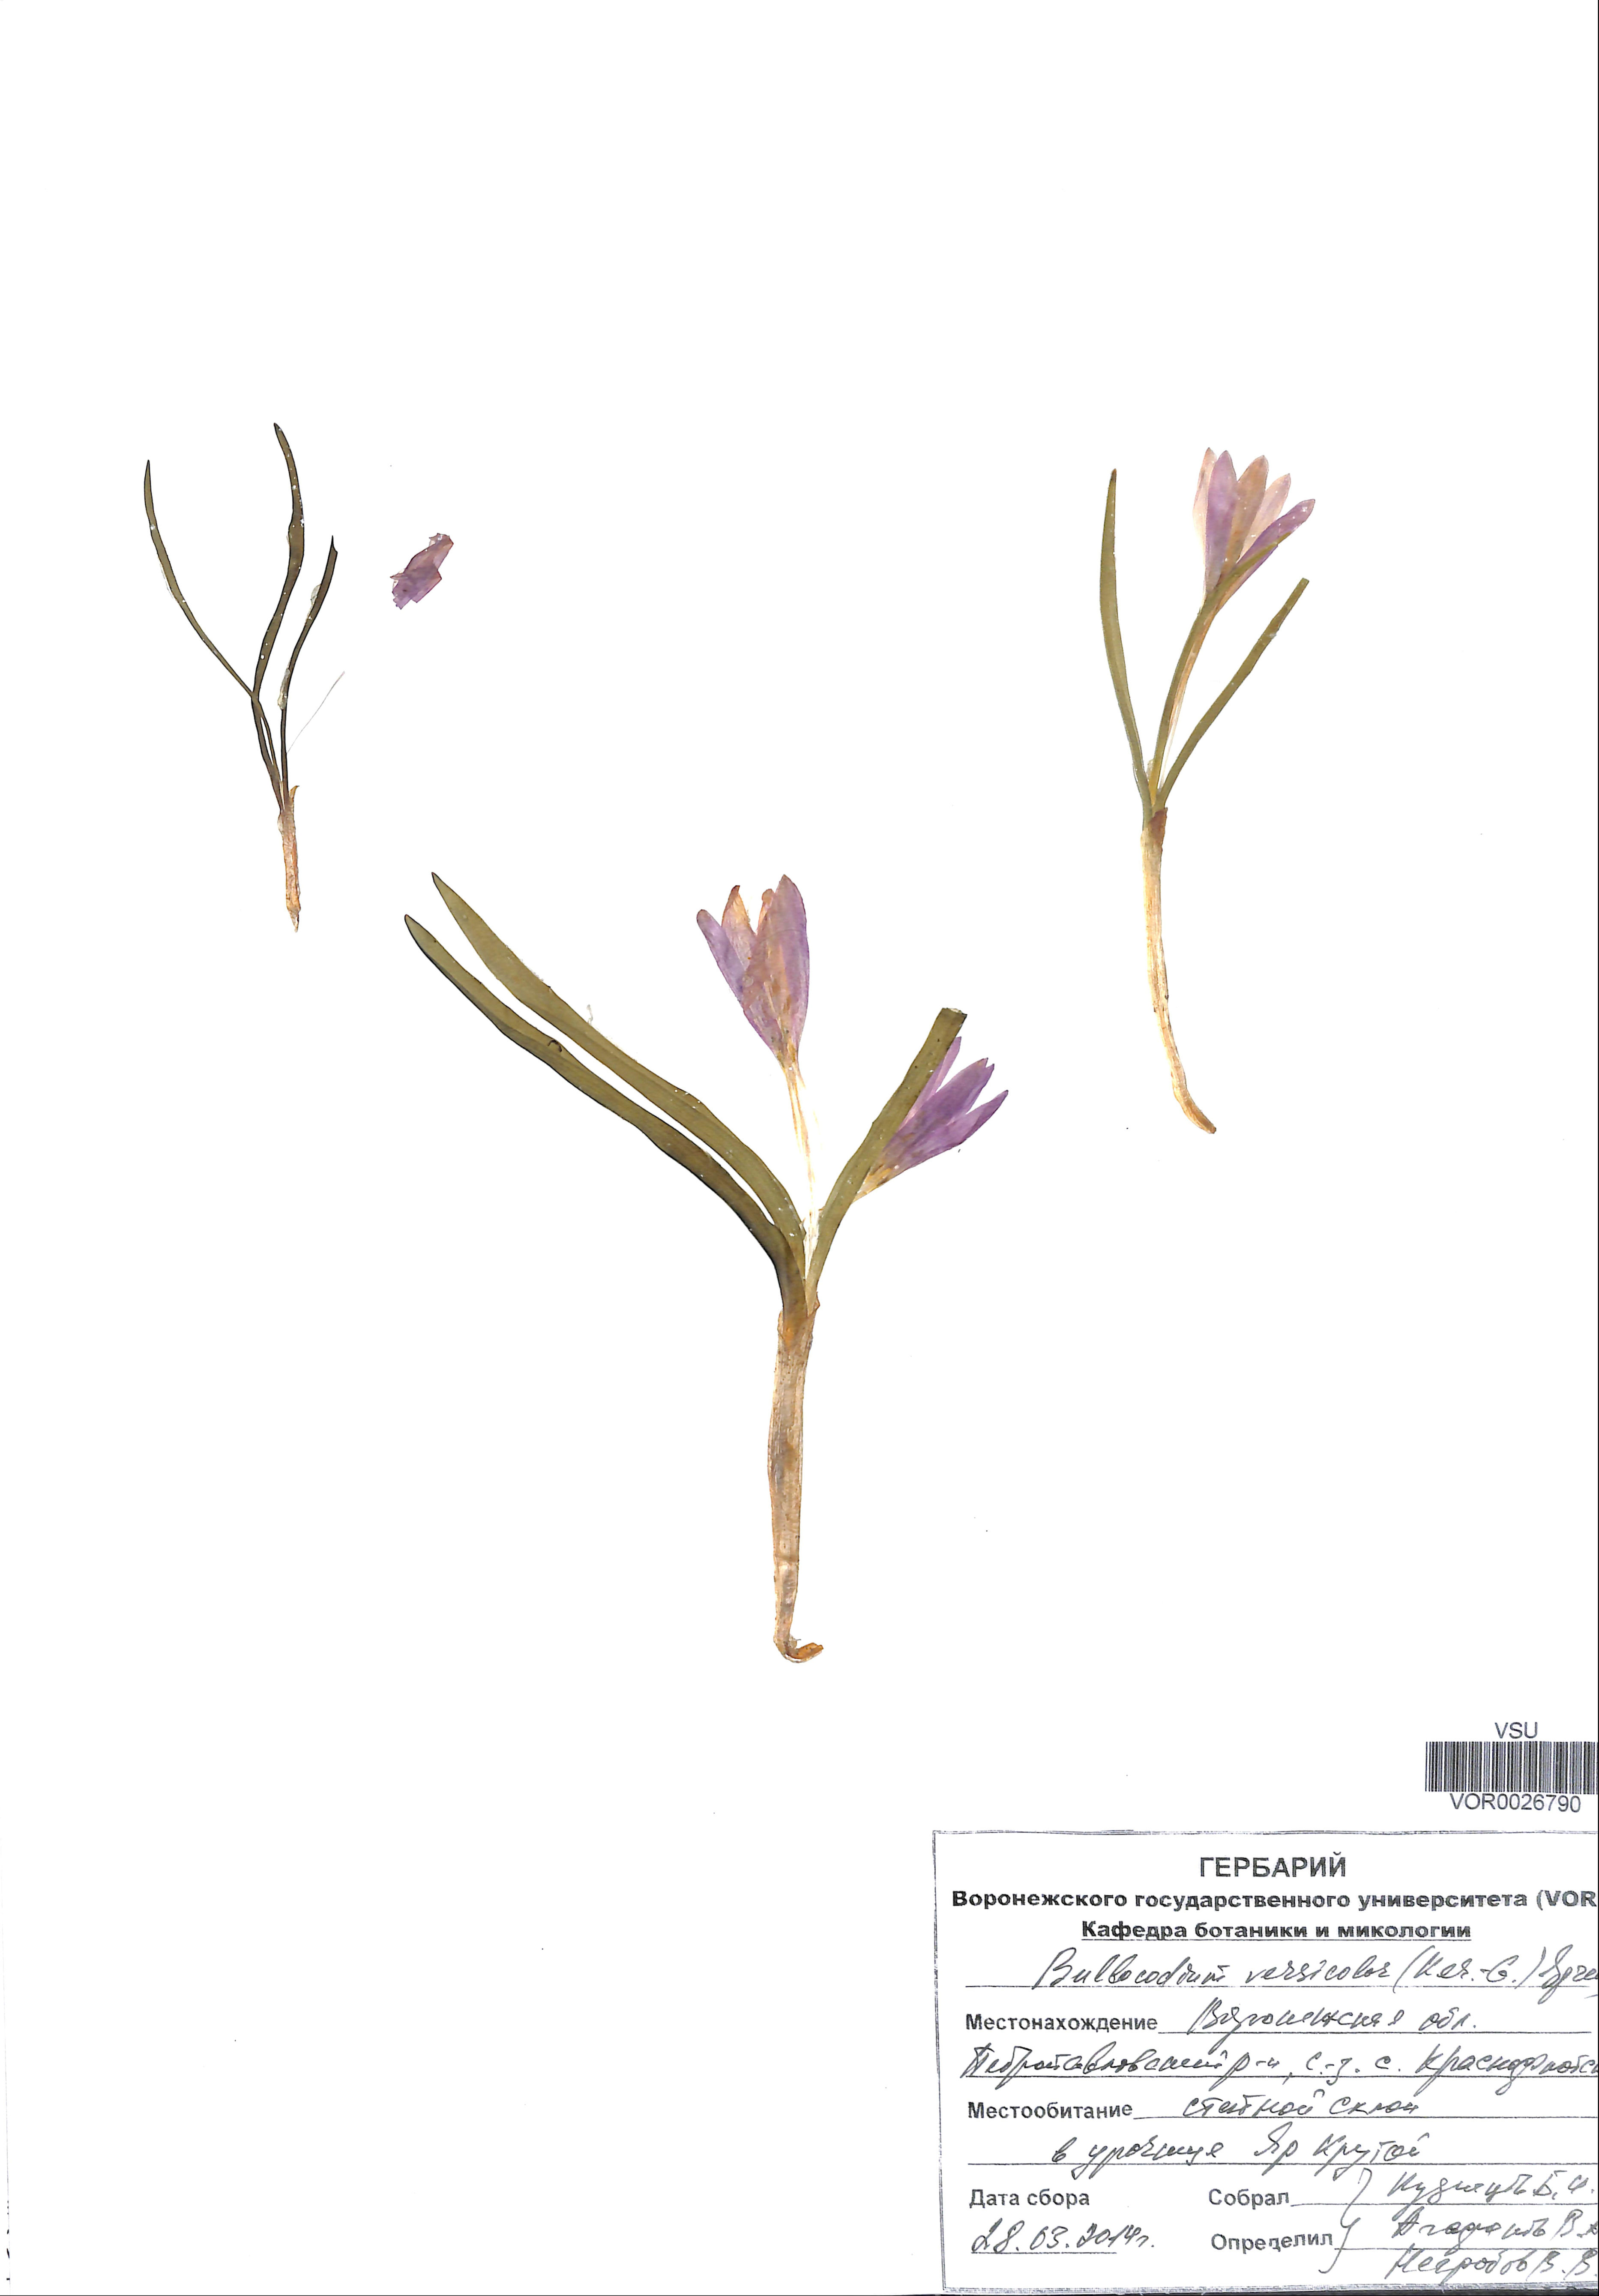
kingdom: Plantae
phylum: Tracheophyta
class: Liliopsida
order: Liliales
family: Colchicaceae
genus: Colchicum
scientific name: Colchicum bulbocodium
